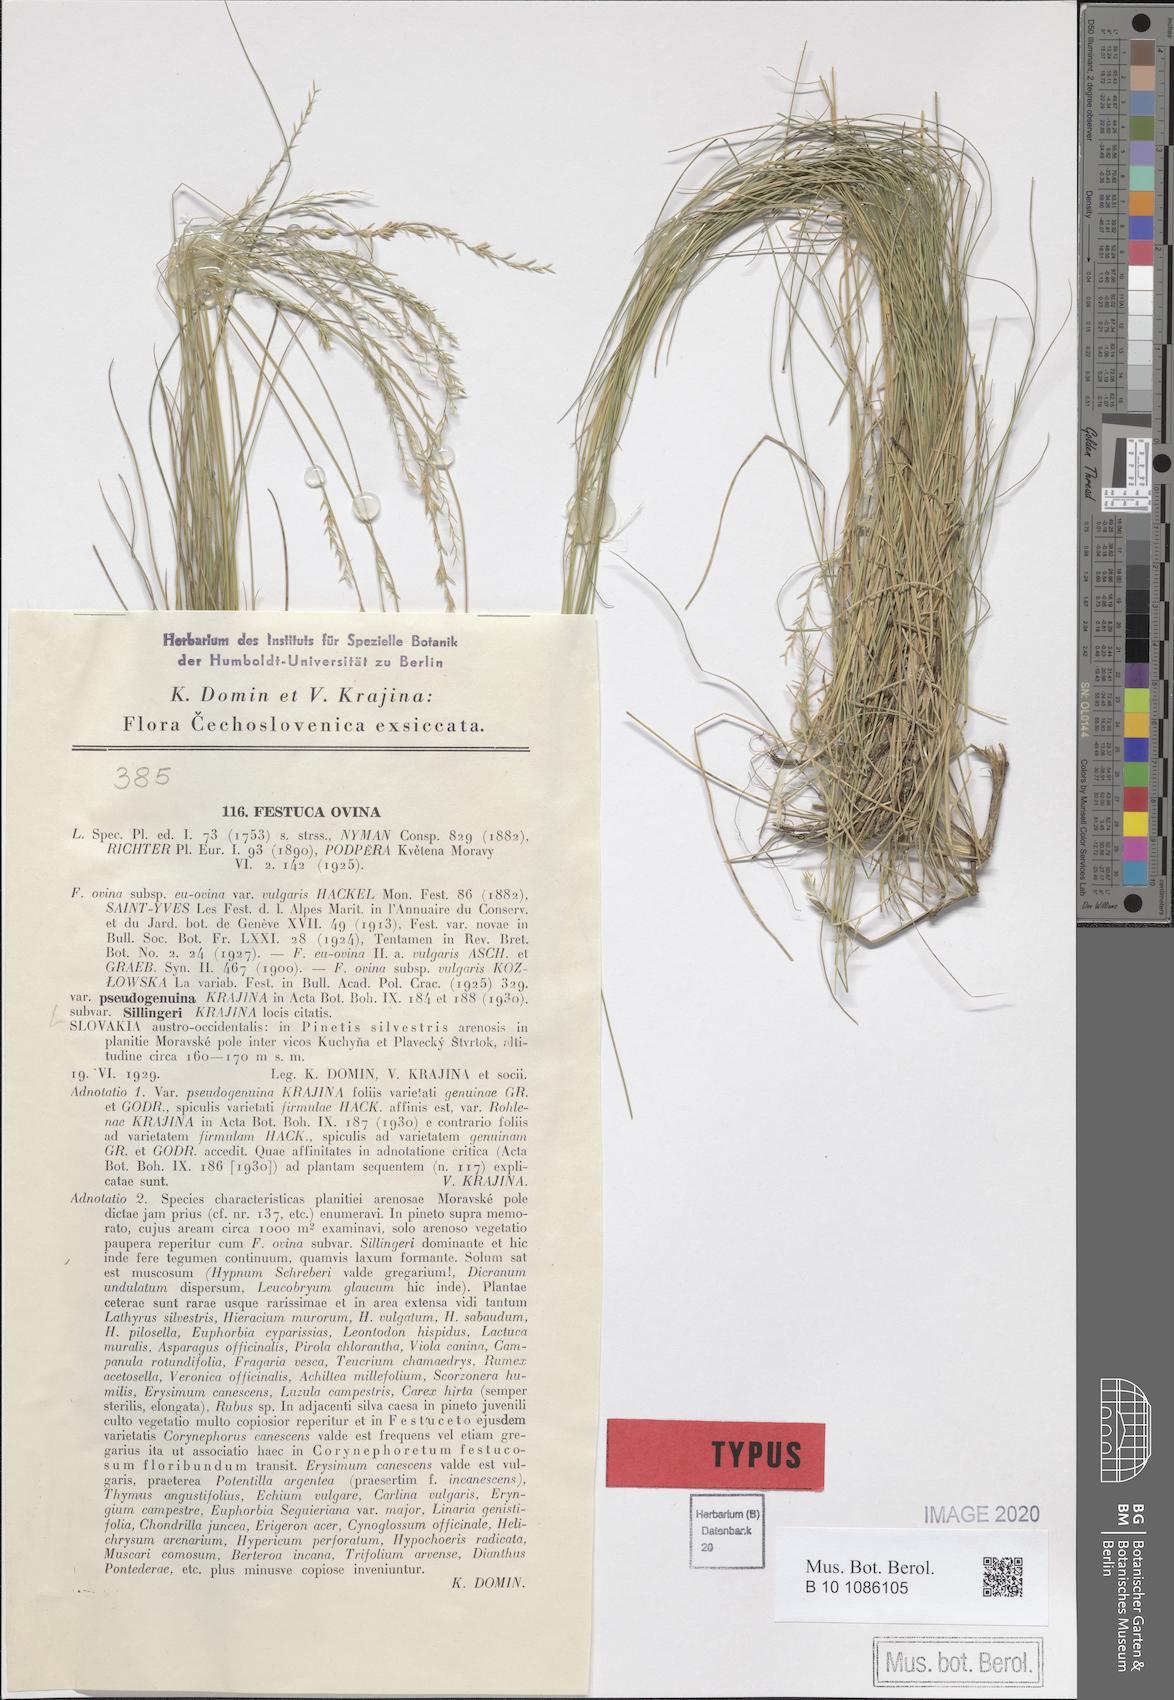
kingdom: Plantae
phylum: Tracheophyta
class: Liliopsida
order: Poales
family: Poaceae
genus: Festuca
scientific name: Festuca ovina
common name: Sheep fescue
